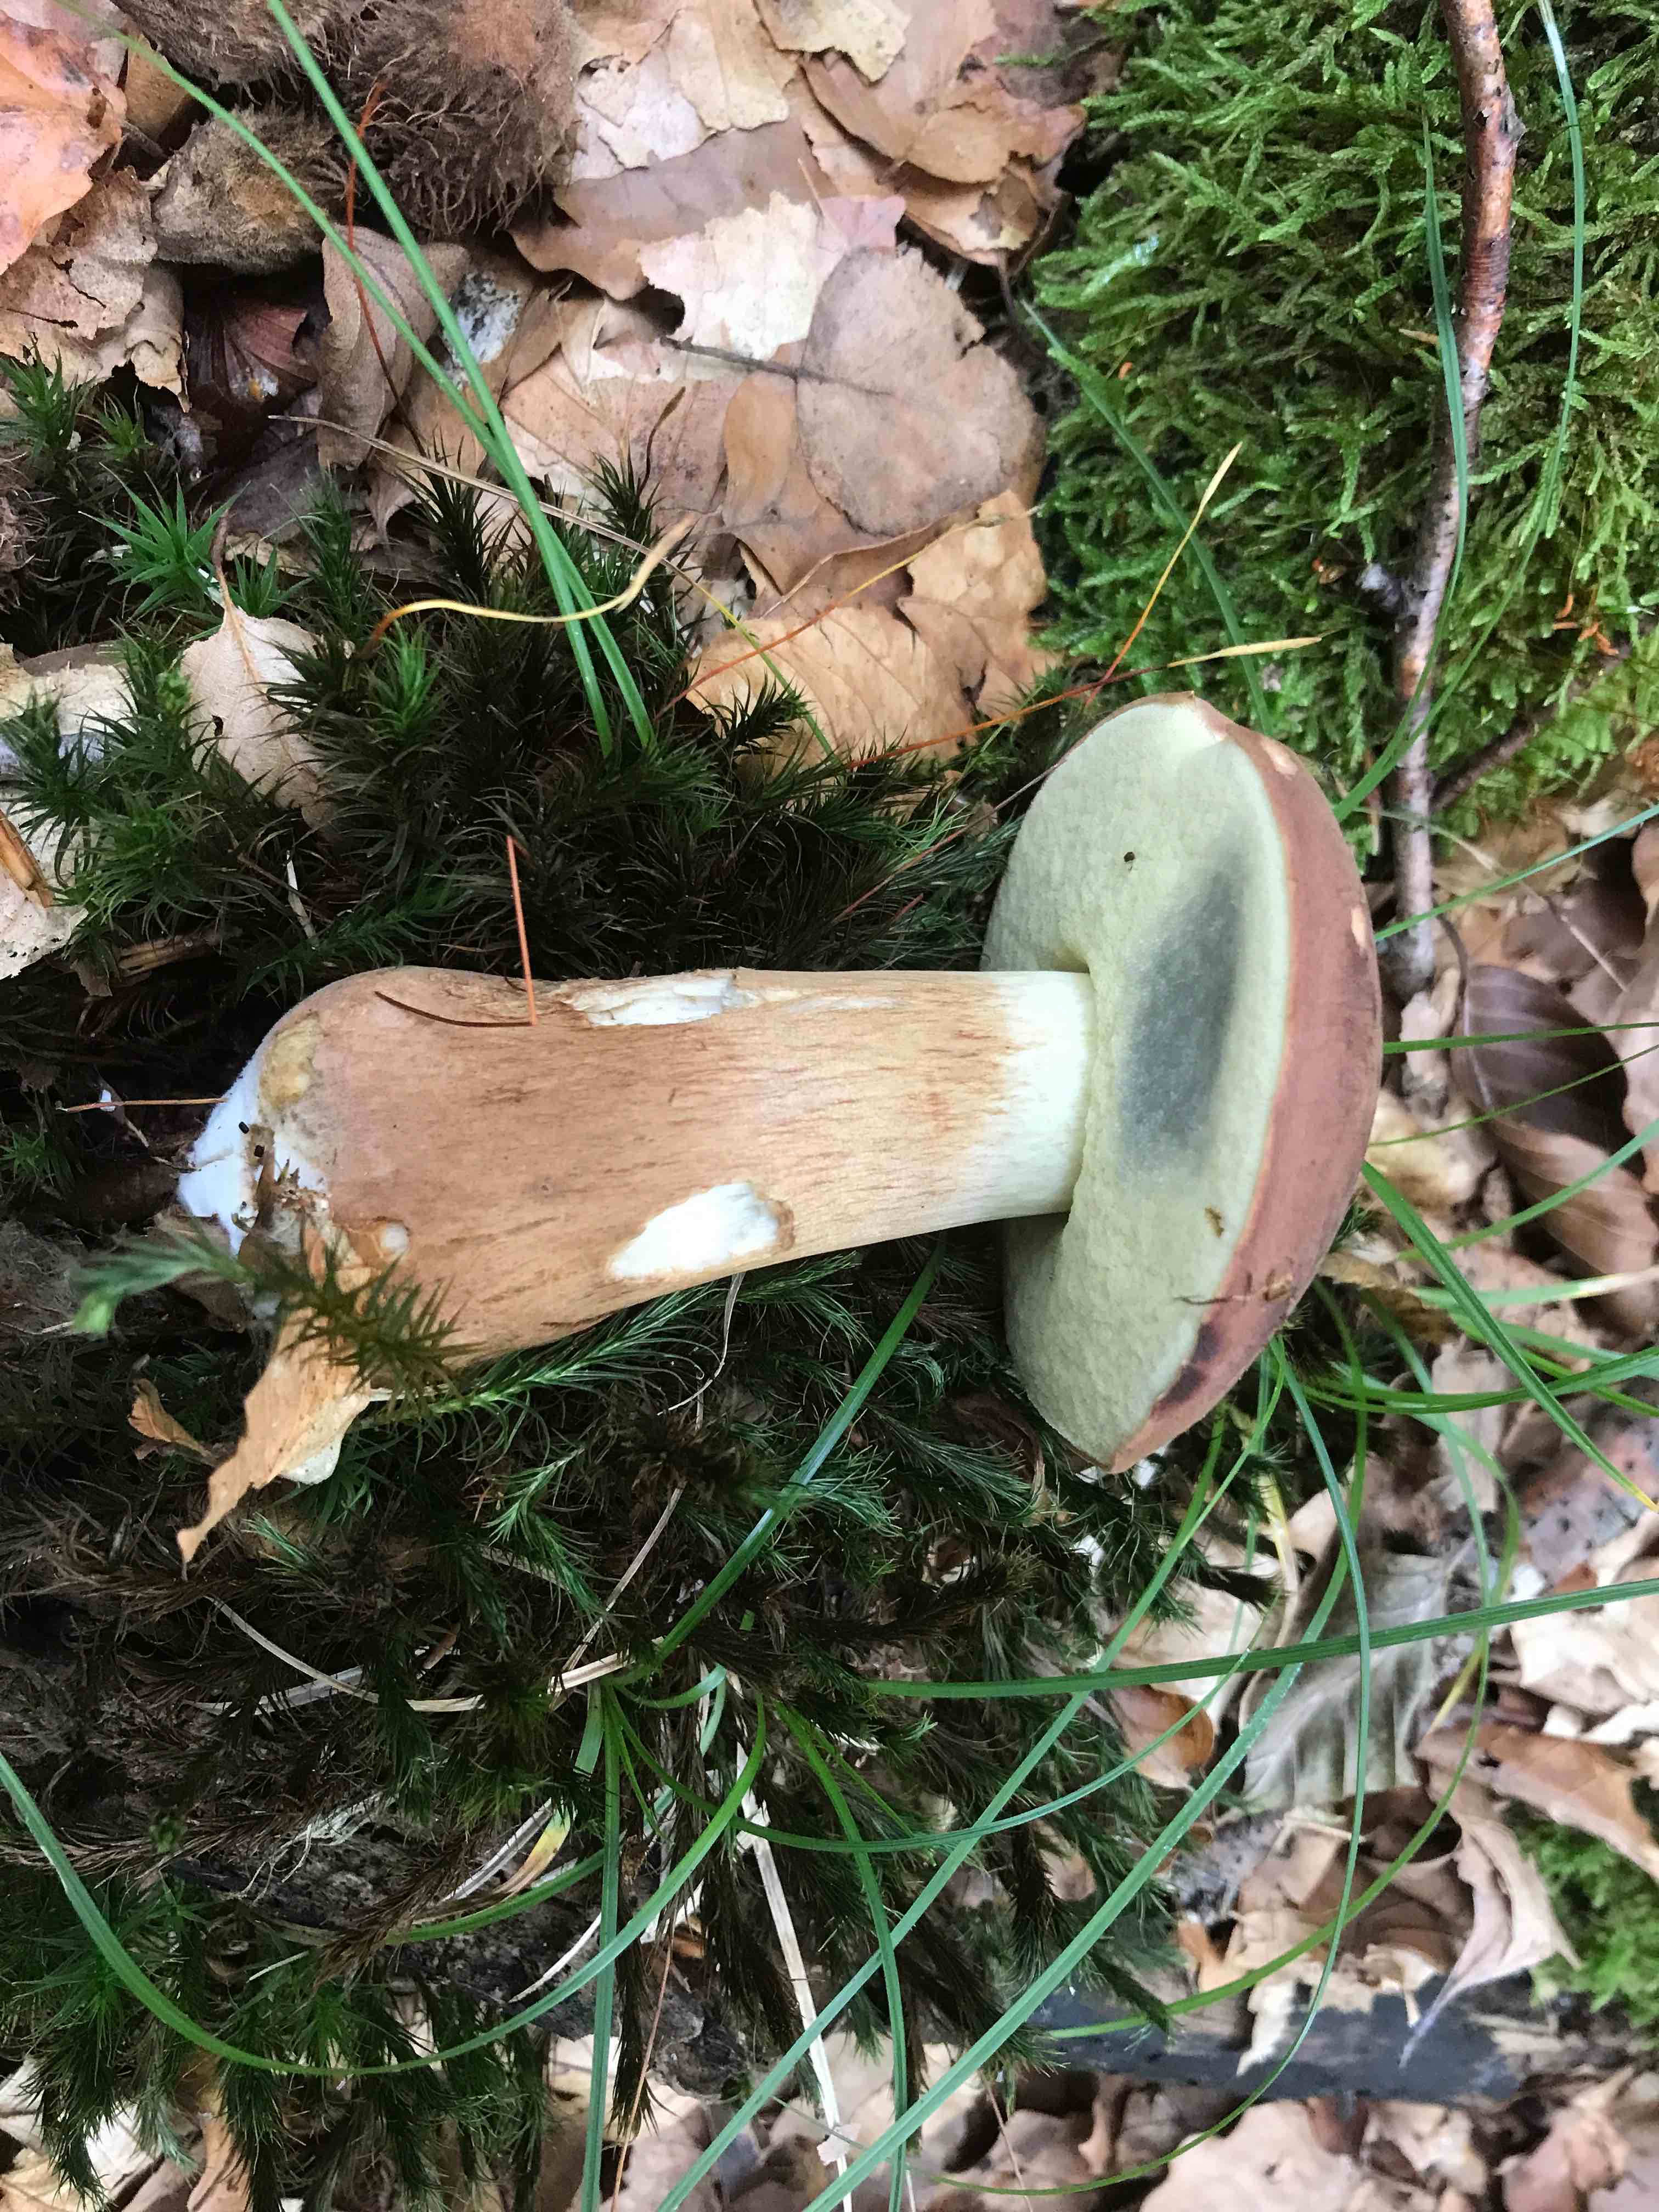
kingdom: Fungi
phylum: Basidiomycota
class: Agaricomycetes
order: Boletales
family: Boletaceae
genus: Imleria
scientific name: Imleria badia
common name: brunstokket rørhat
